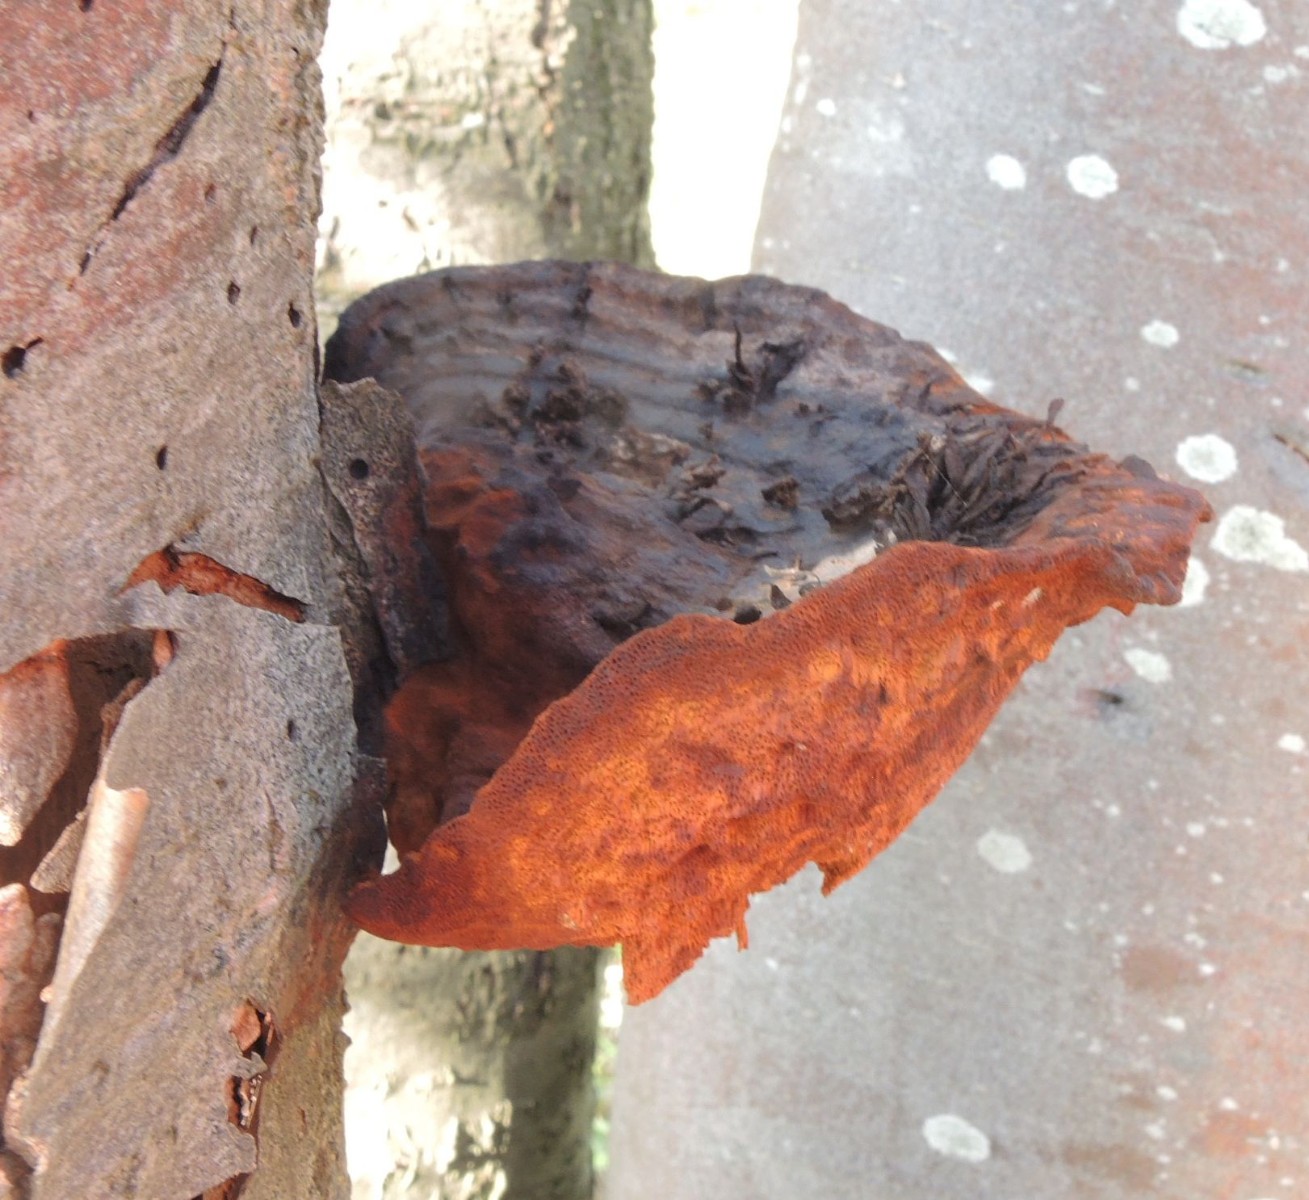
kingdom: Fungi
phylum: Basidiomycota
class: Agaricomycetes
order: Hymenochaetales
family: Hymenochaetaceae
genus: Inonotus
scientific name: Inonotus hispidus
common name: børstehåret spejlporesvamp
